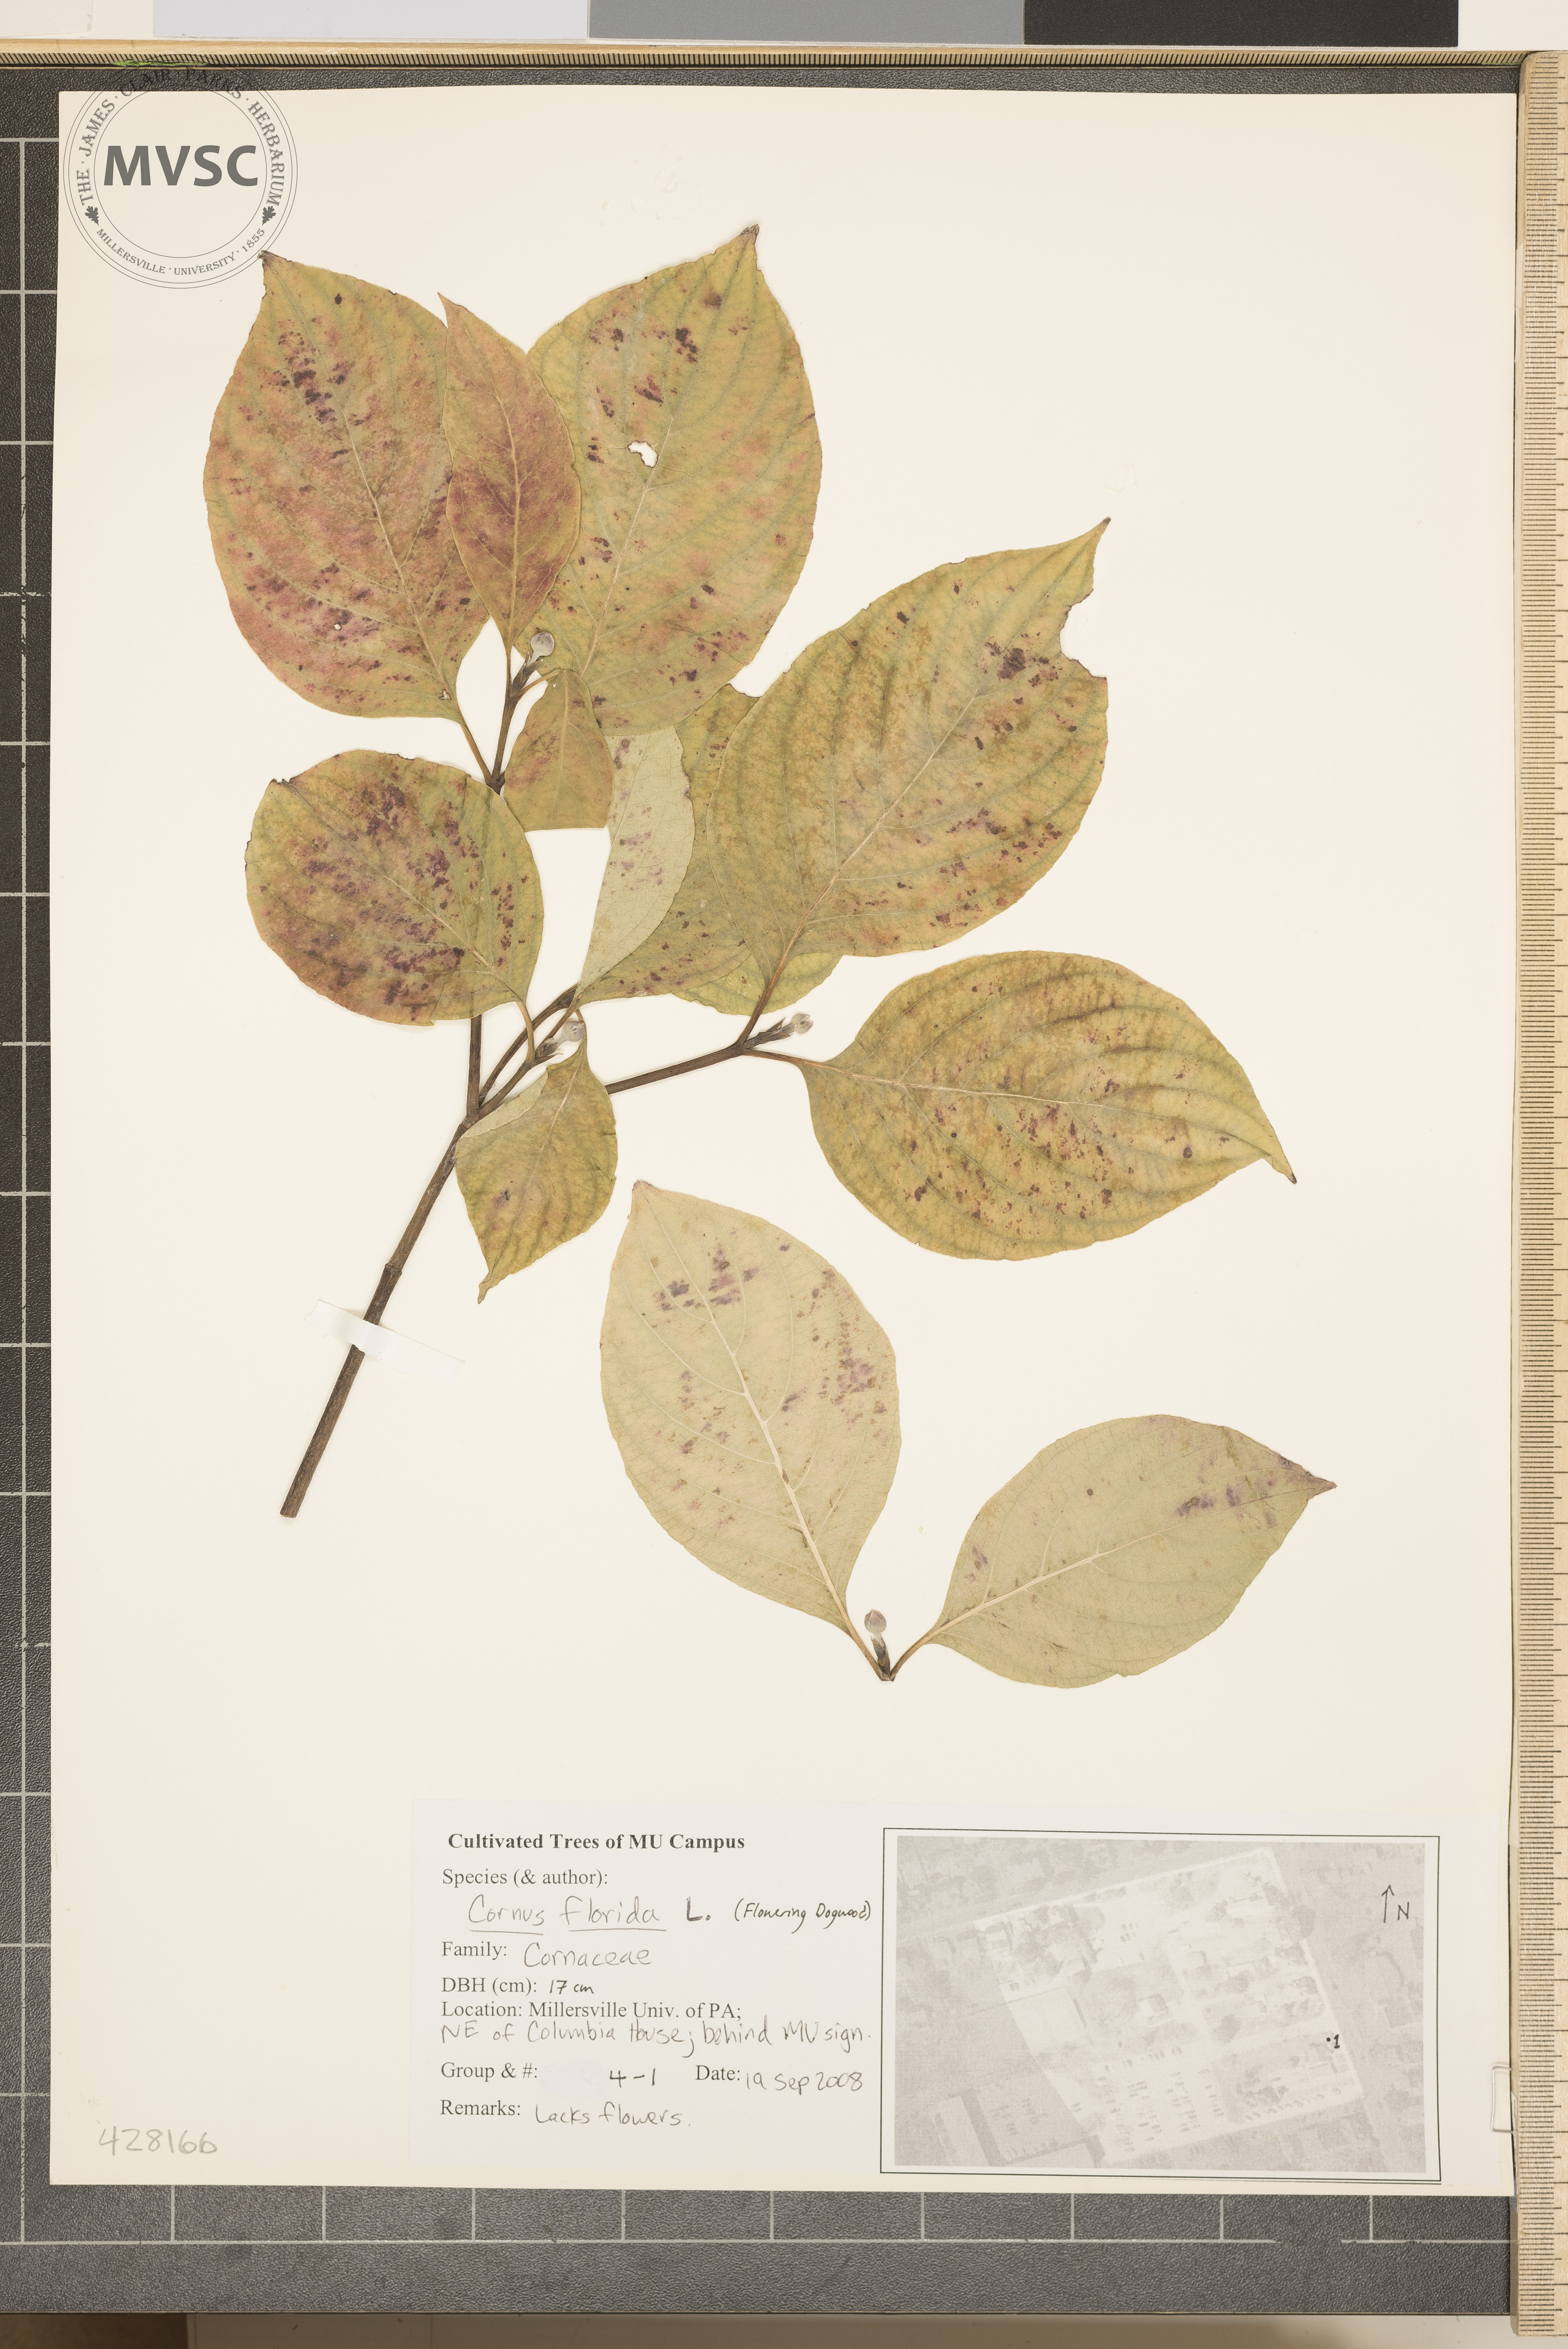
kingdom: Plantae
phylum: Tracheophyta
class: Magnoliopsida
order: Cornales
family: Cornaceae
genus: Cornus
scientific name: Cornus florida
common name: Flowering Dogwood
